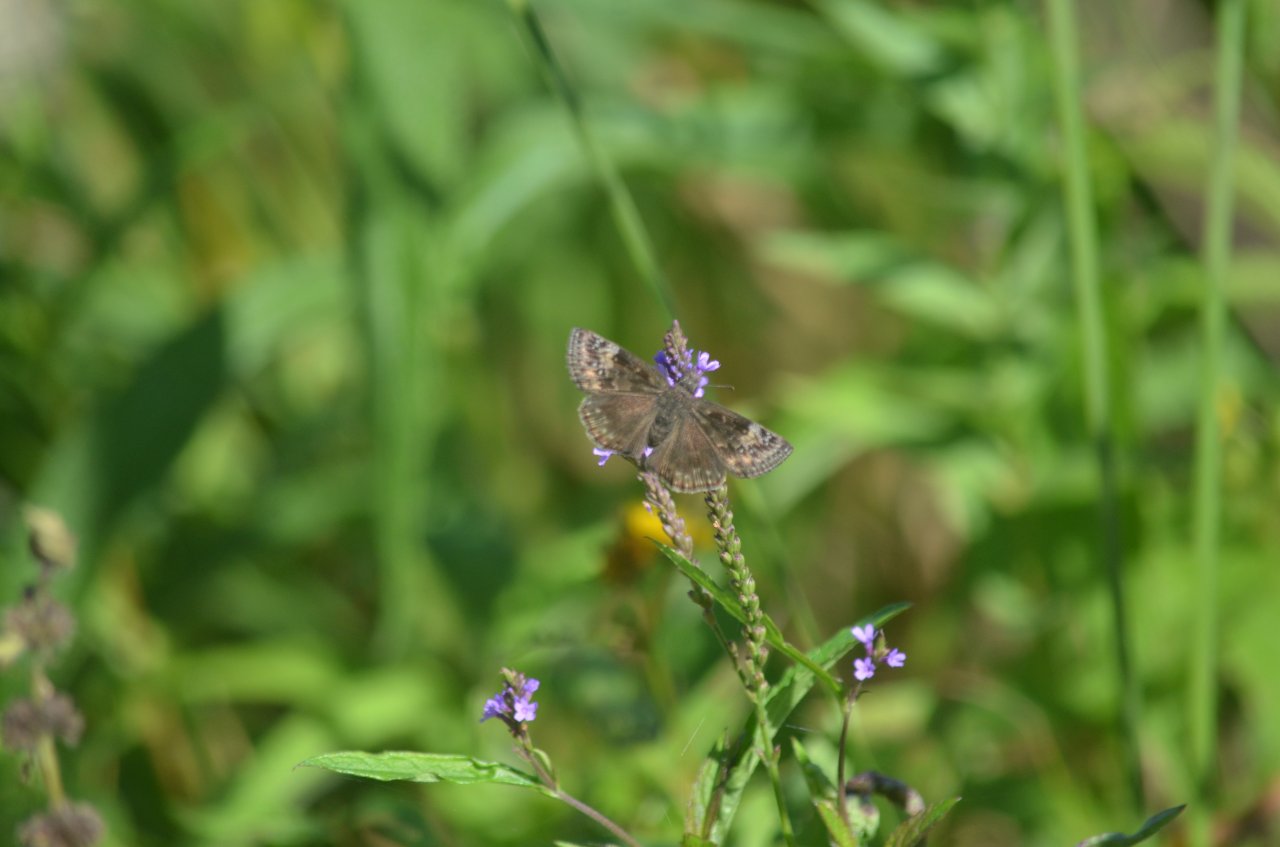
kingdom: Animalia
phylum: Arthropoda
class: Insecta
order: Lepidoptera
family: Hesperiidae
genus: Gesta
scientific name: Gesta
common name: Wild Indigo Duskywing
